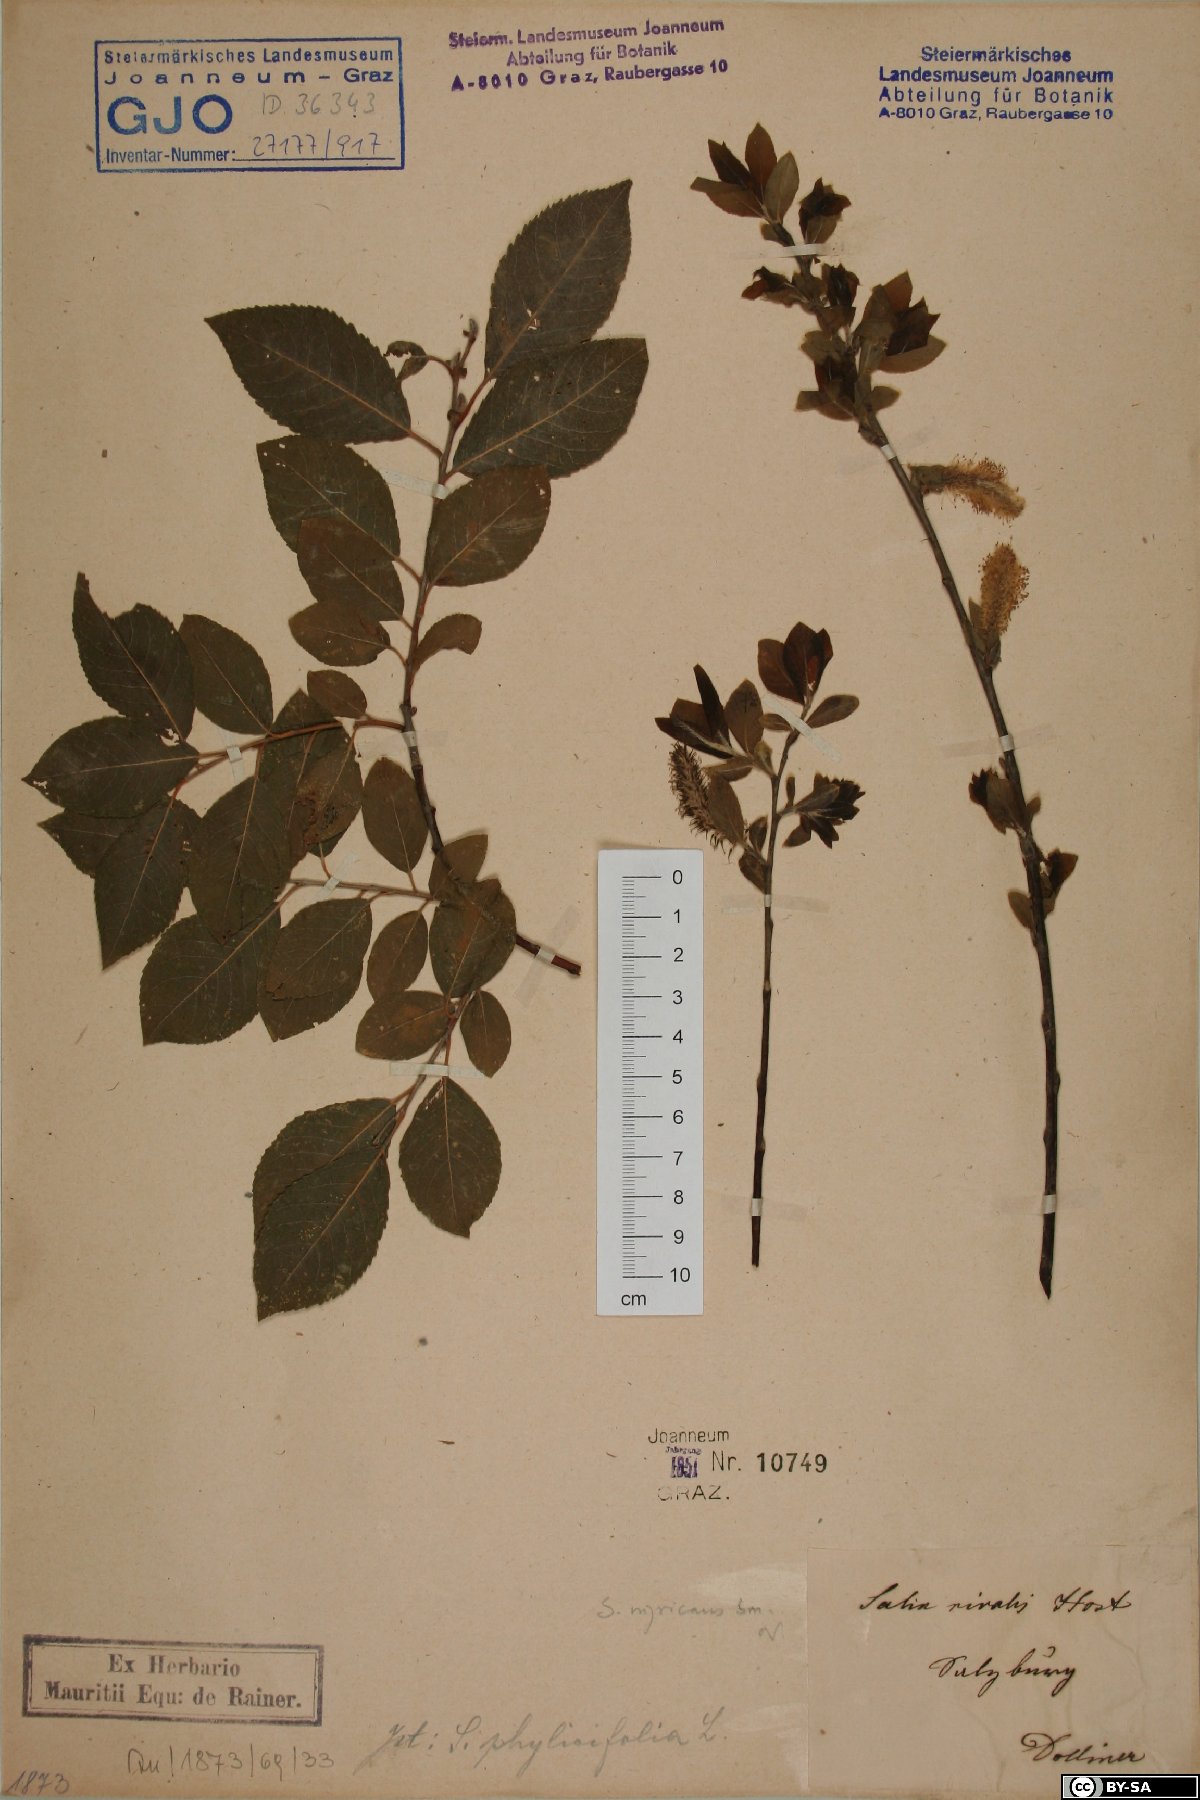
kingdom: Plantae
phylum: Tracheophyta
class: Magnoliopsida
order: Malpighiales
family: Salicaceae
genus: Salix
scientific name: Salix myrsinifolia
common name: Dark-leaved willow
